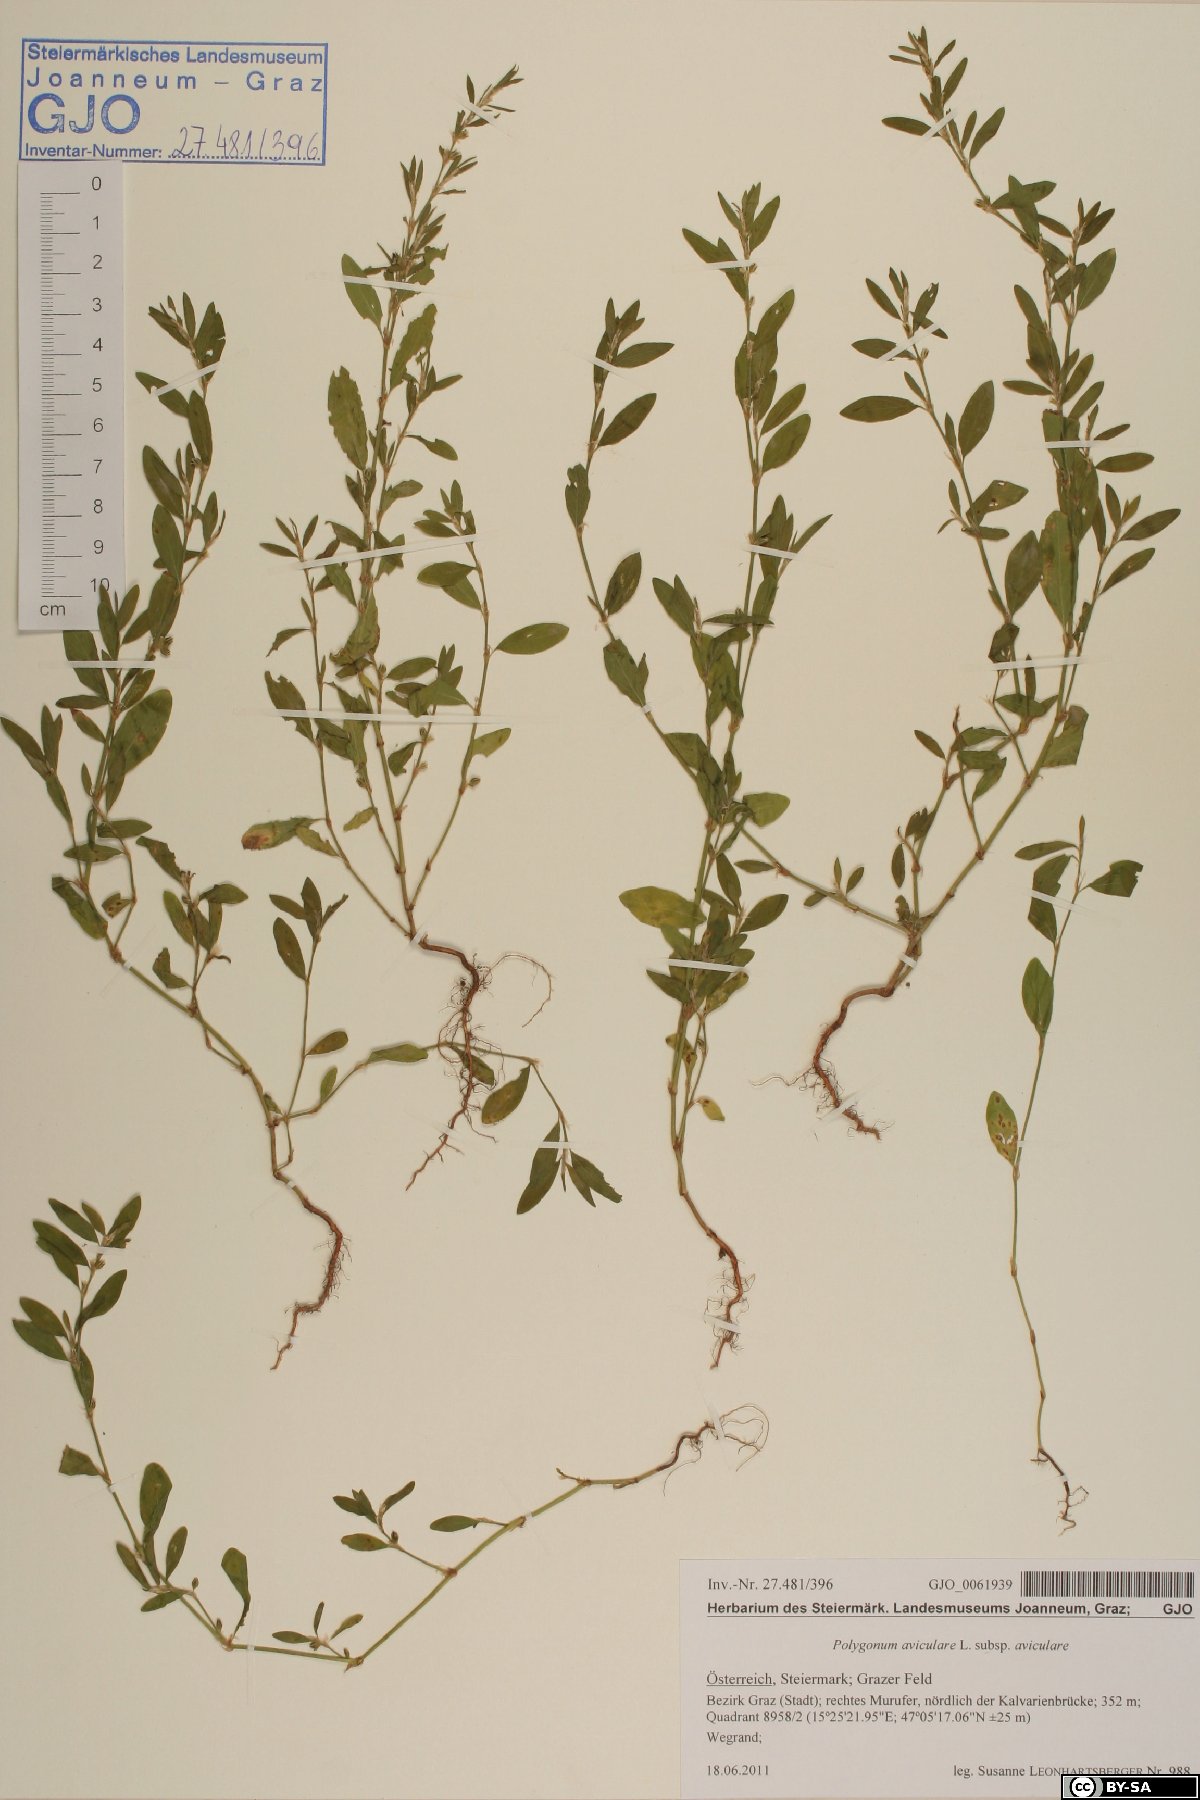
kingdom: Plantae
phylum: Tracheophyta
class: Magnoliopsida
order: Caryophyllales
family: Polygonaceae
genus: Polygonum
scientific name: Polygonum aviculare
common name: Prostrate knotweed
